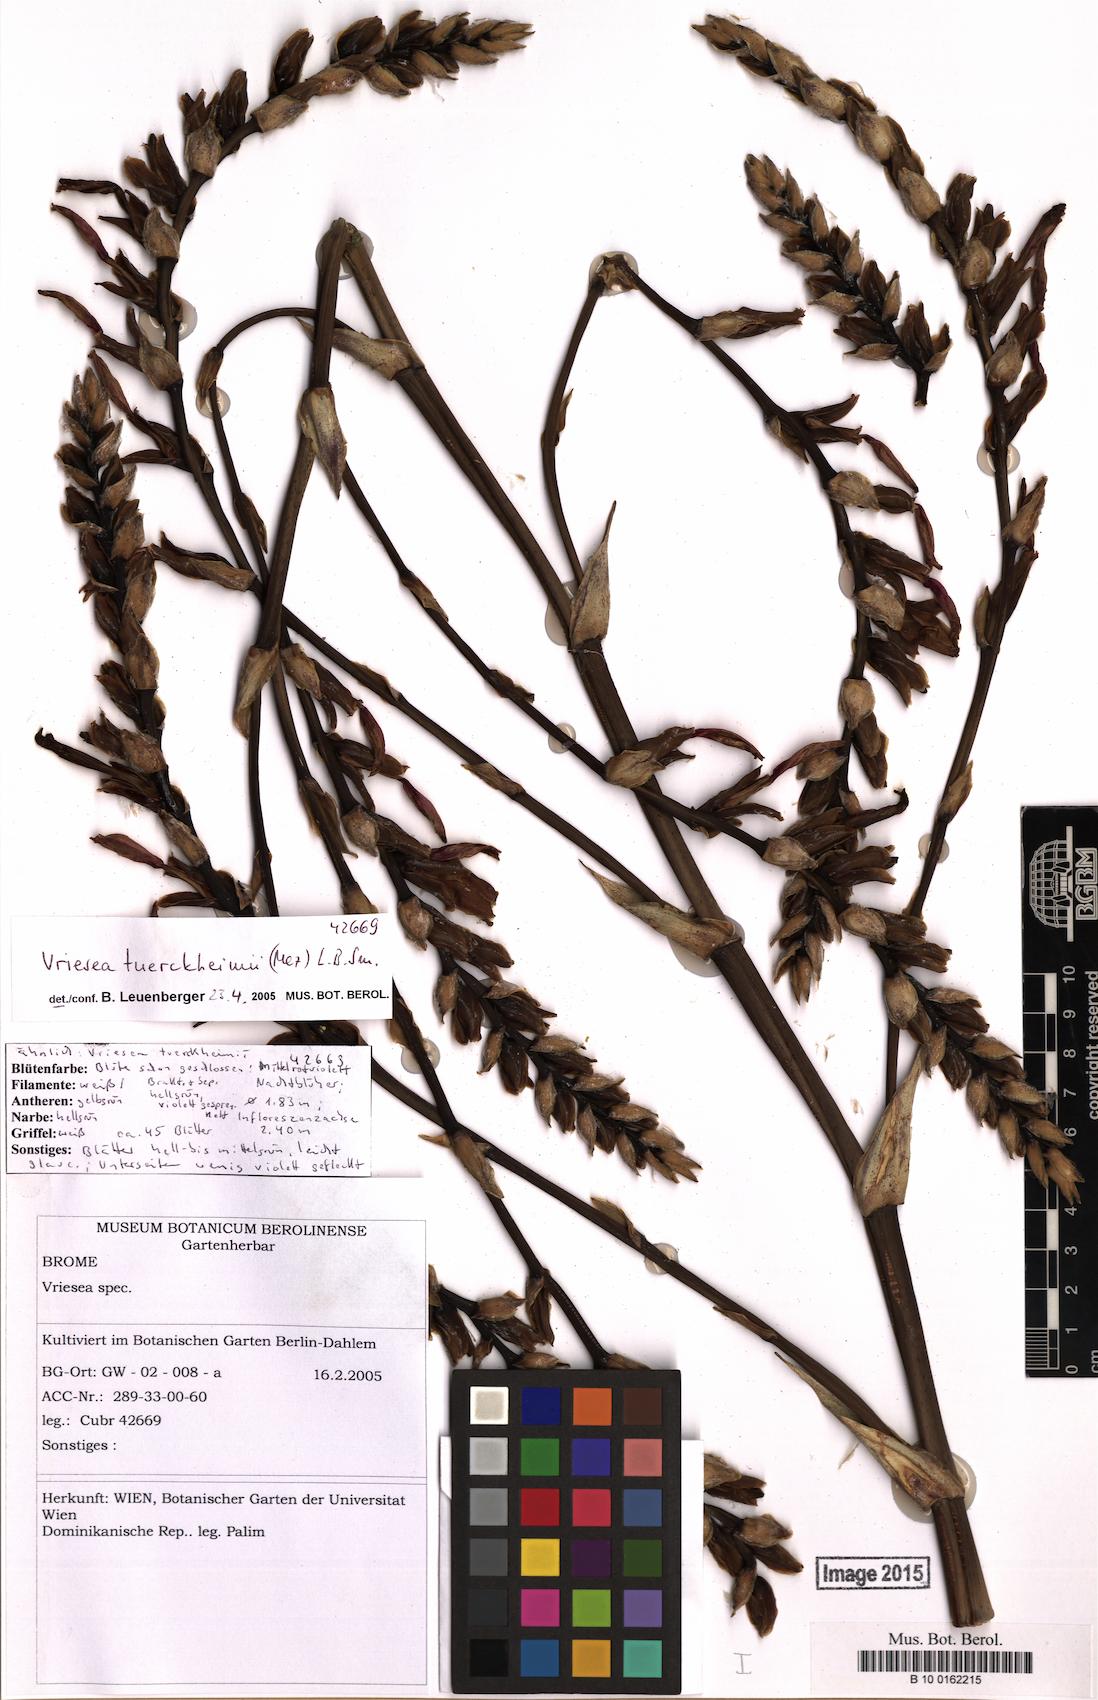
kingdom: Plantae
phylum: Tracheophyta
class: Liliopsida
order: Poales
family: Bromeliaceae
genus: Zizkaea
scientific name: Zizkaea tuerckheimii
